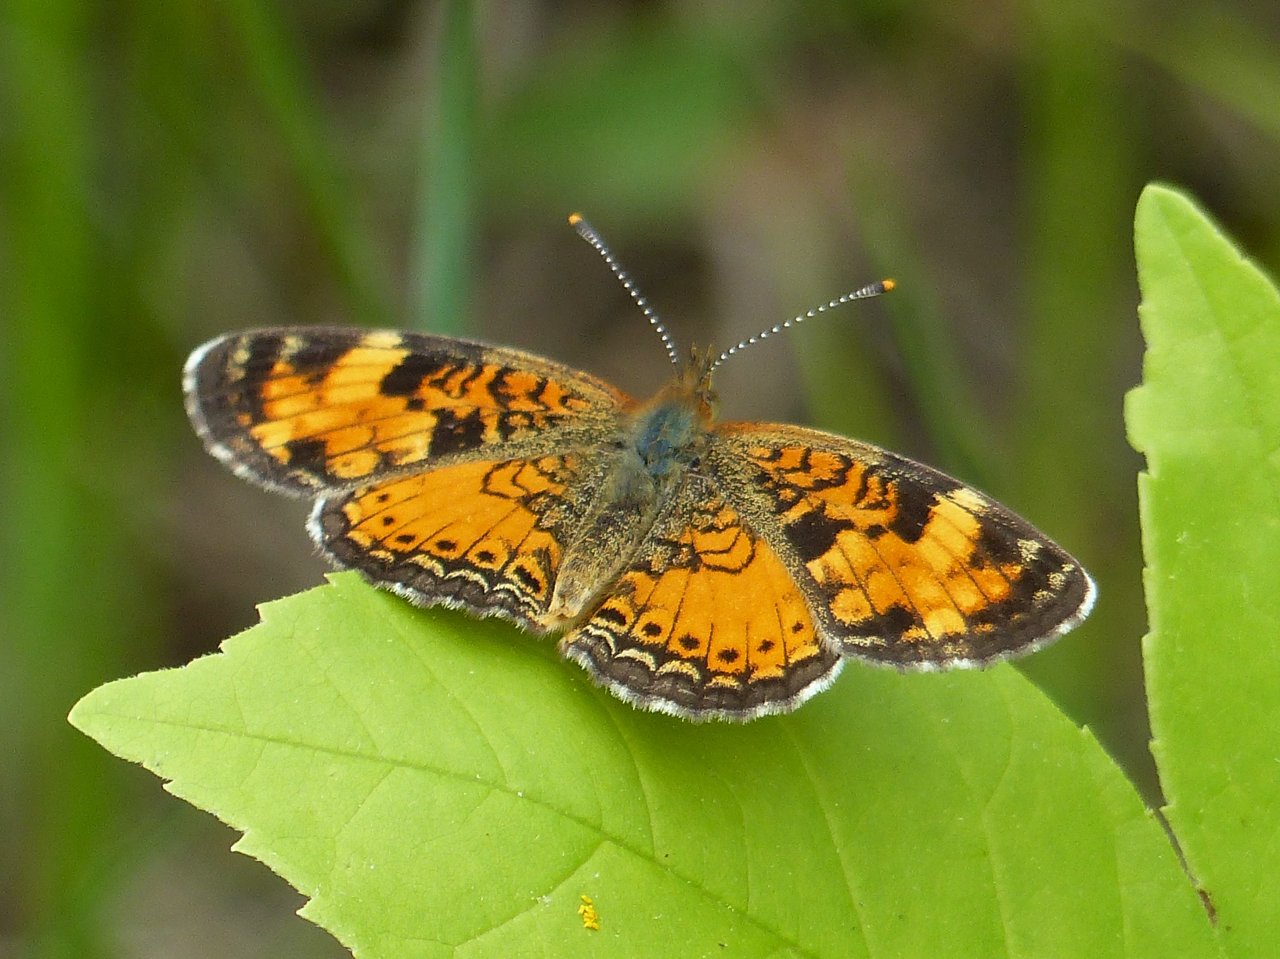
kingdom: Animalia
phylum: Arthropoda
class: Insecta
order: Lepidoptera
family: Nymphalidae
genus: Phyciodes
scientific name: Phyciodes tharos
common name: Northern Crescent
